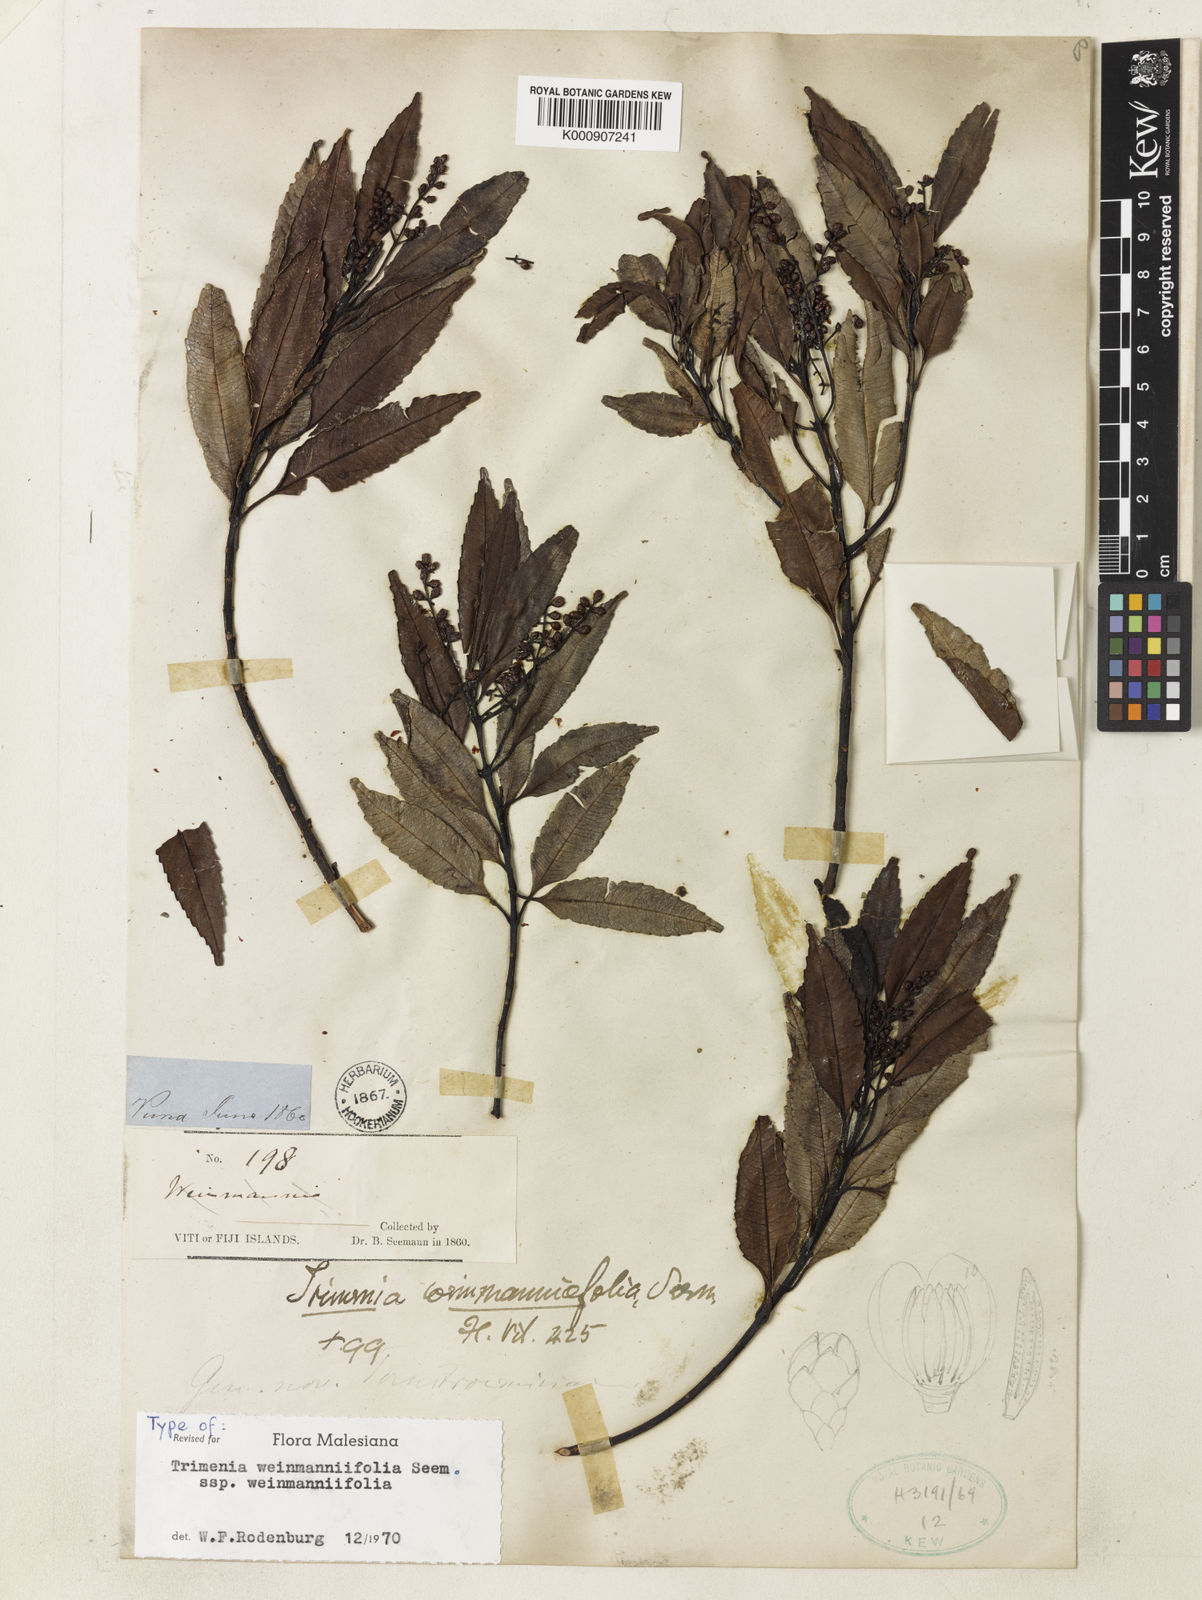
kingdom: Plantae
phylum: Tracheophyta
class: Magnoliopsida
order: Austrobaileyales
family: Trimeniaceae
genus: Trimenia
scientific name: Trimenia weinmanniifolia
